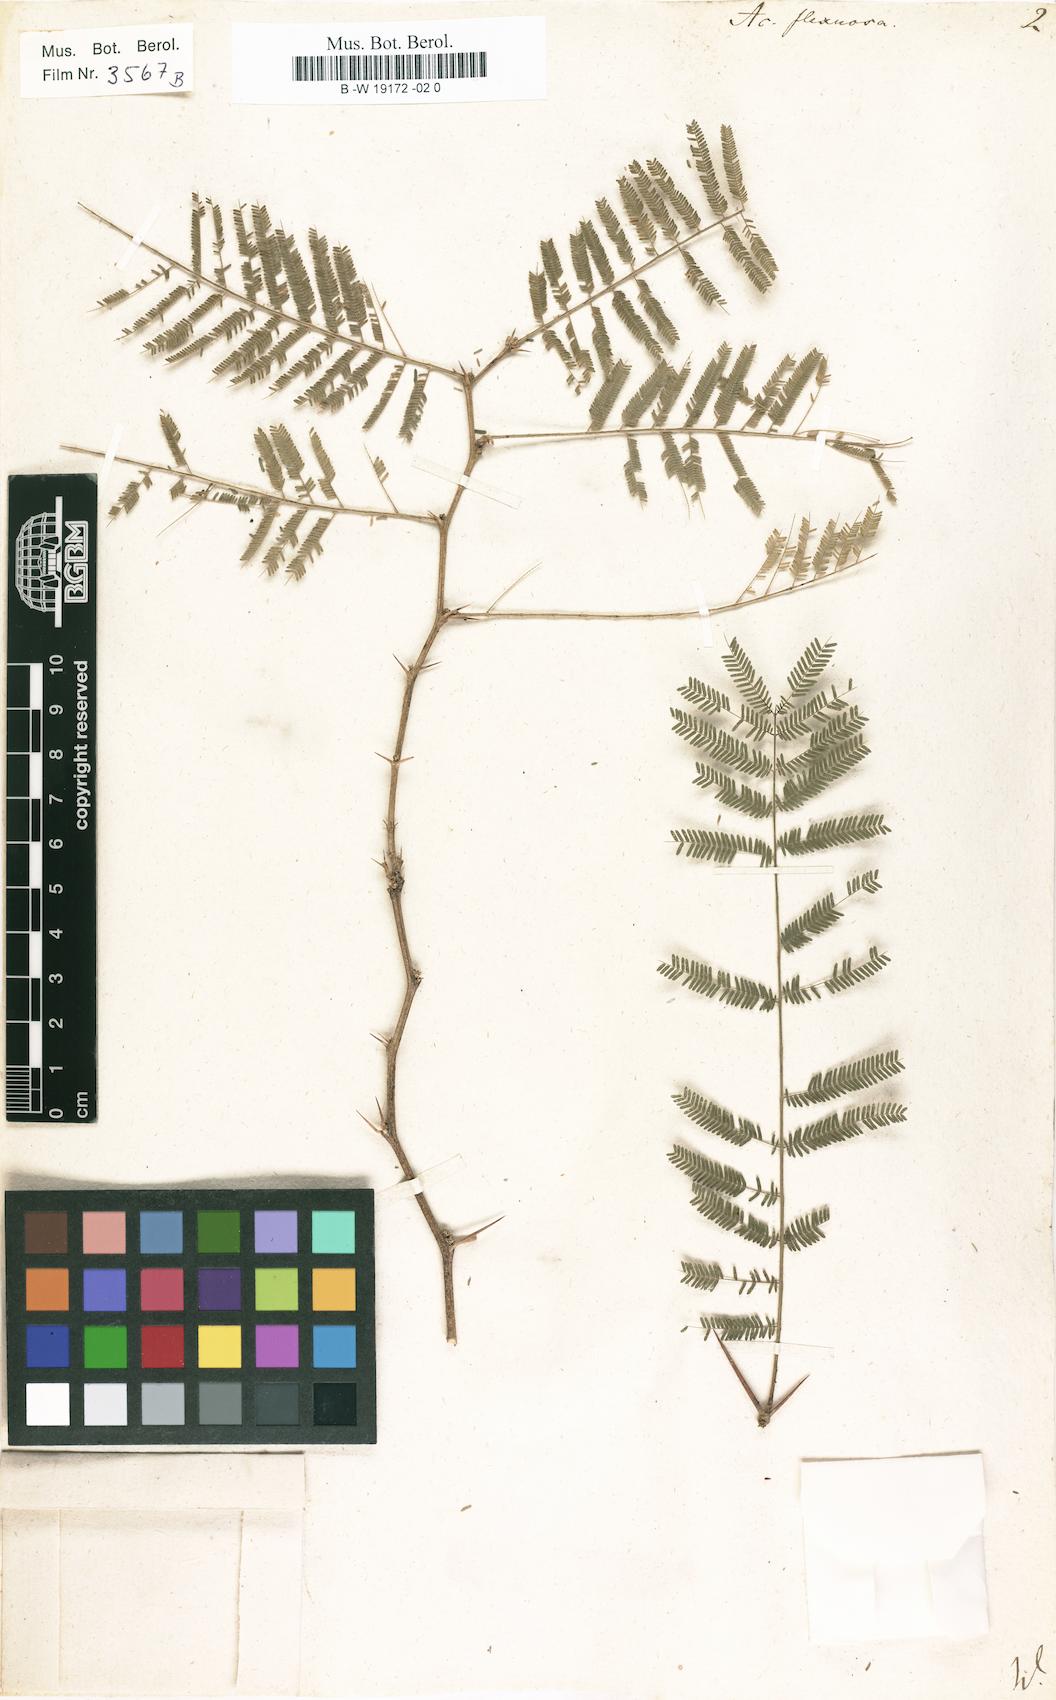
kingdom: Plantae
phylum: Tracheophyta
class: Magnoliopsida
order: Fabales
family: Fabaceae
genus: Vachellia
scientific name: Vachellia macracantha
